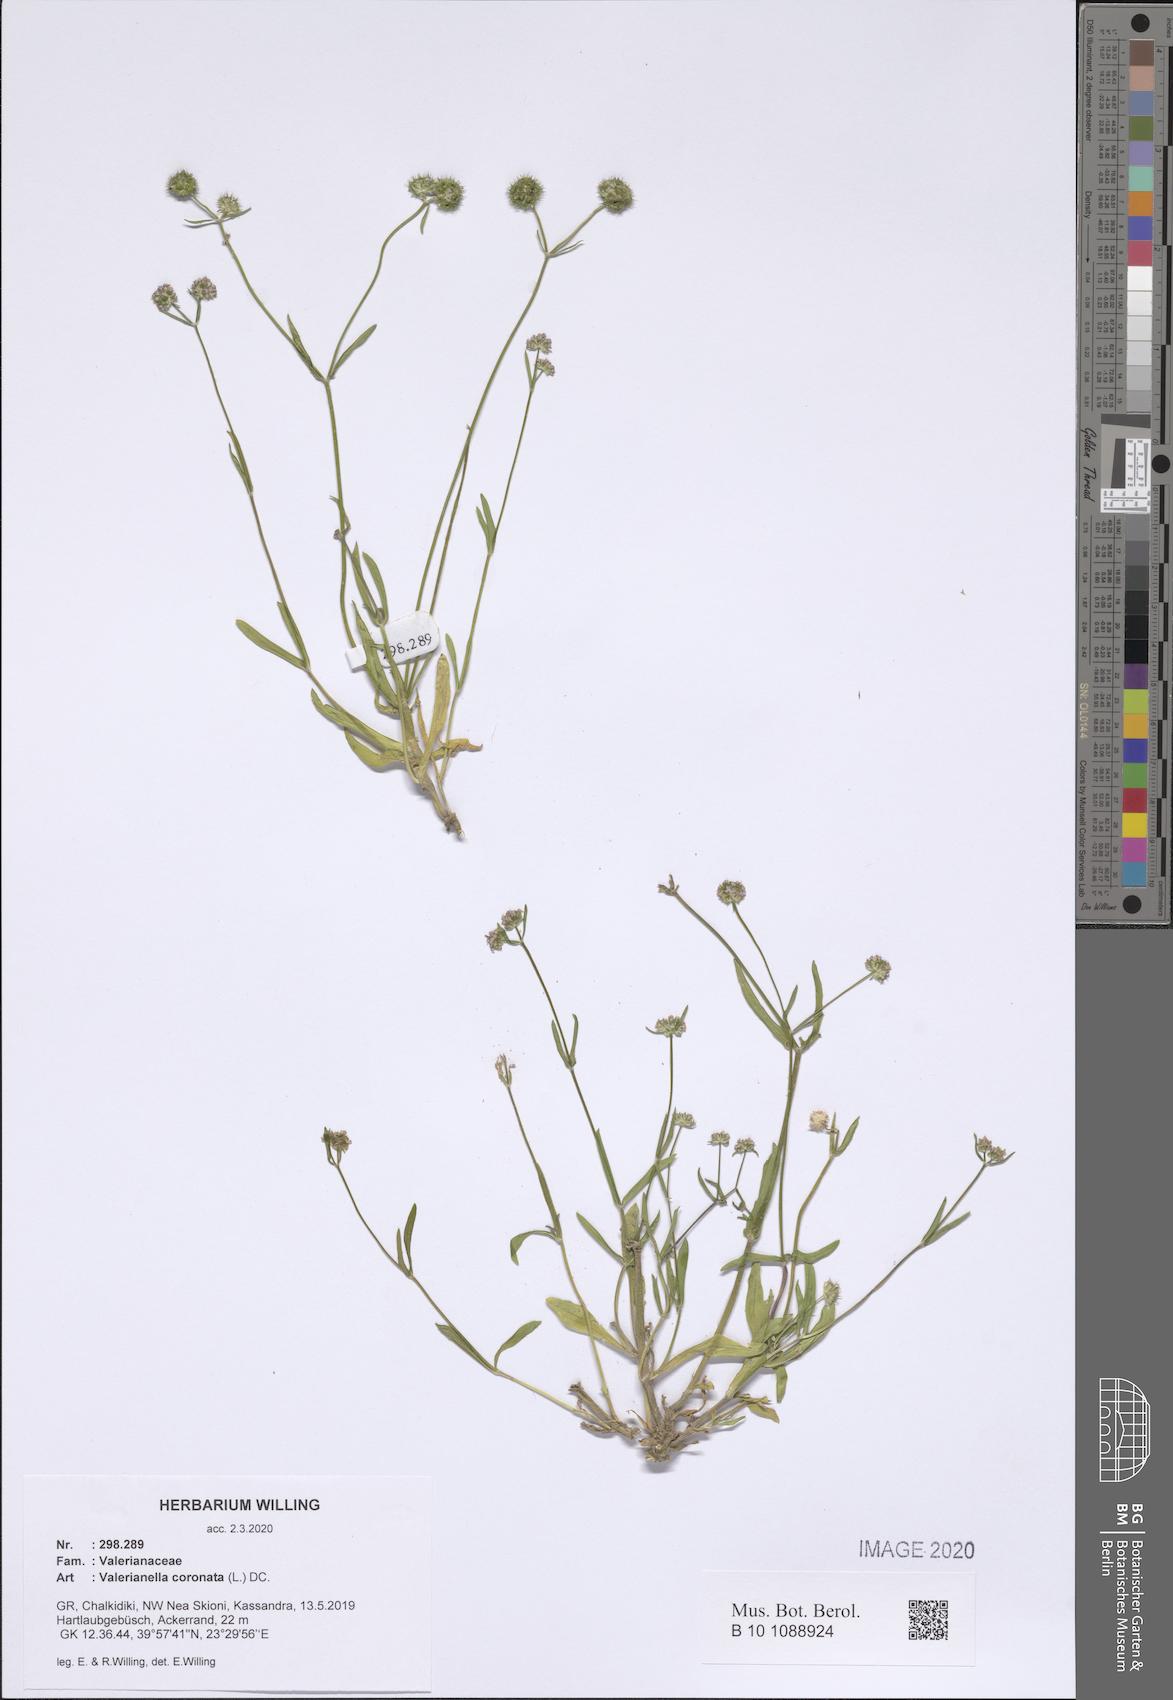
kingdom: Plantae
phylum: Tracheophyta
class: Magnoliopsida
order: Dipsacales
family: Caprifoliaceae
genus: Valerianella
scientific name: Valerianella coronata
